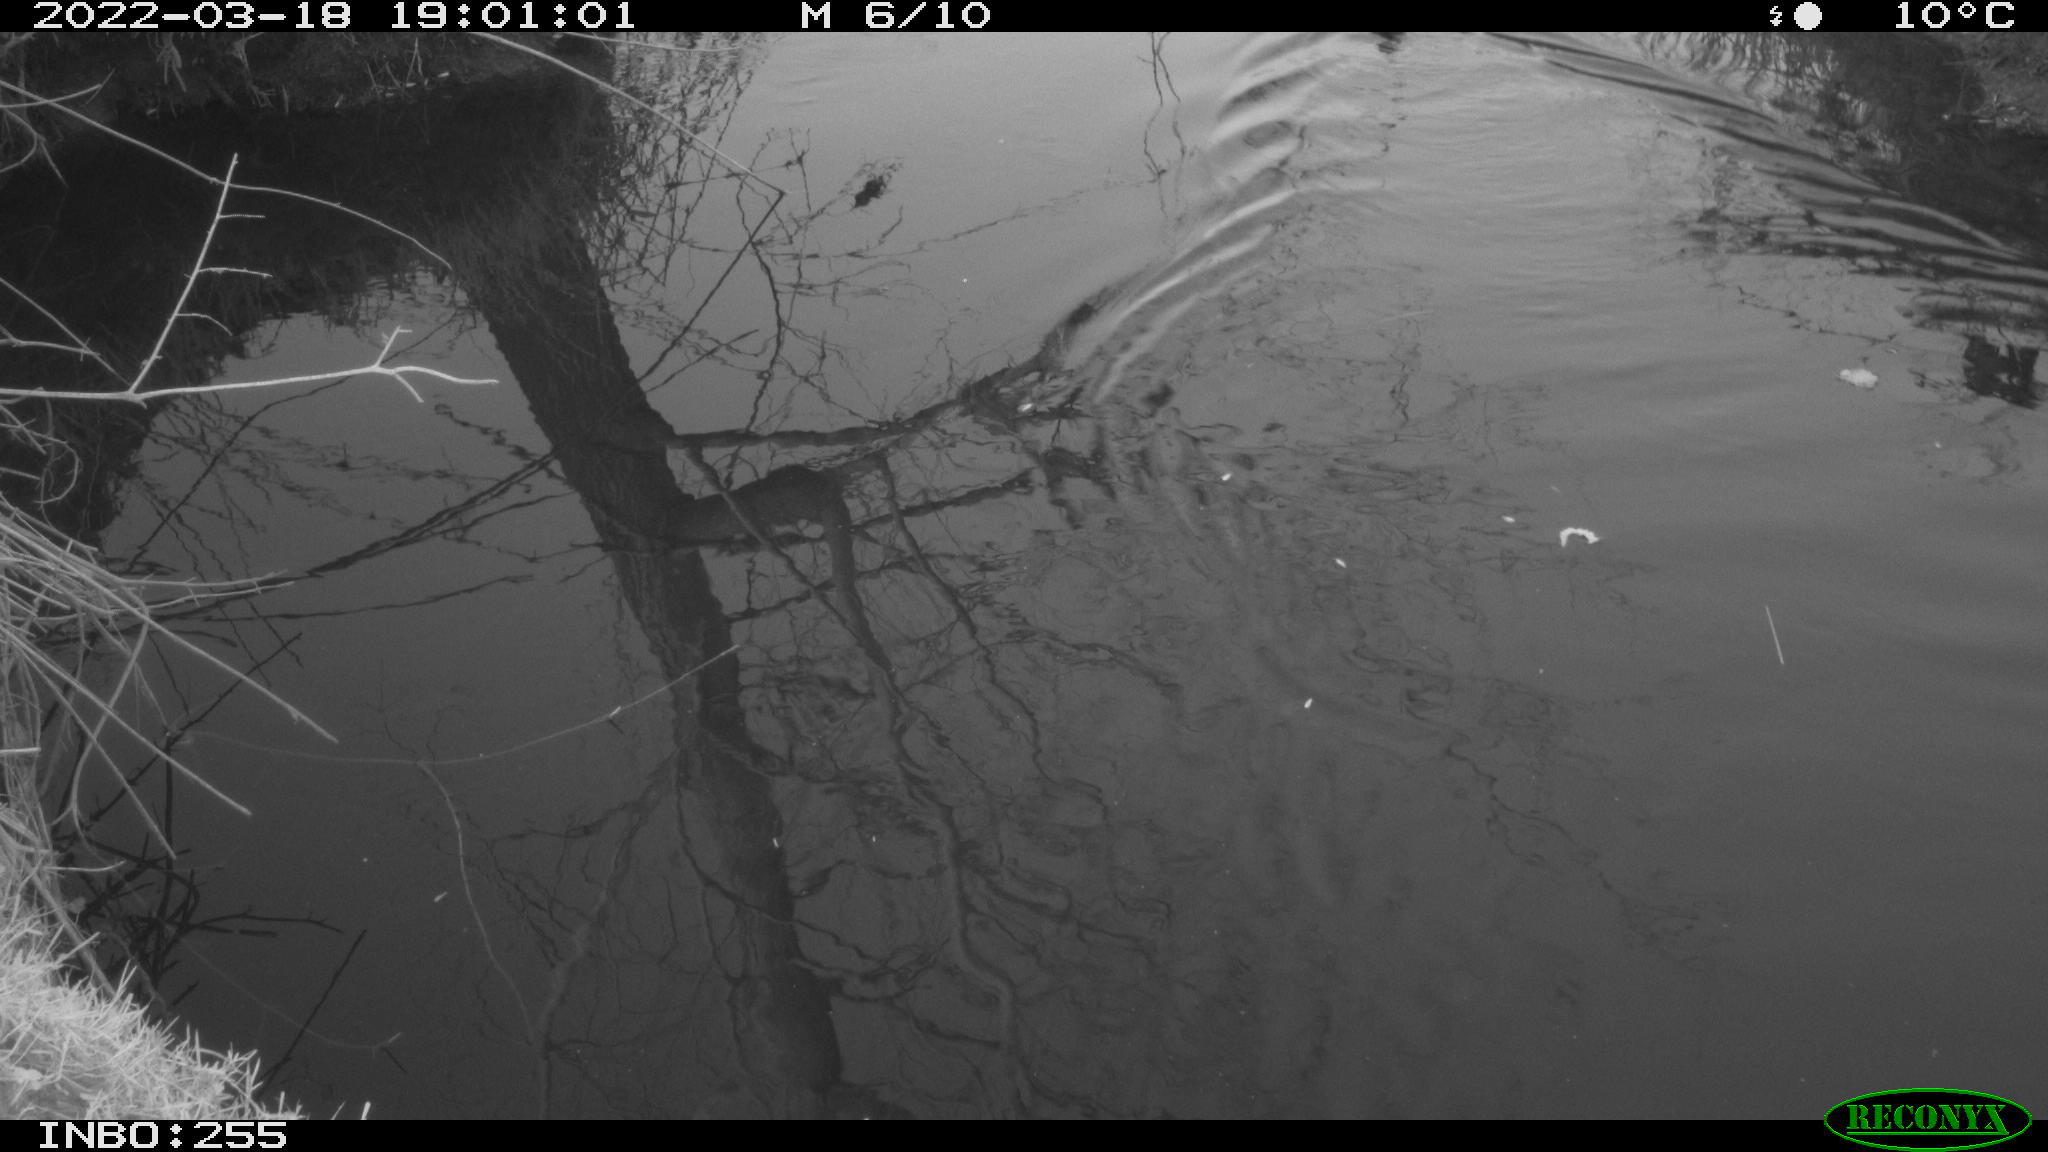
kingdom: Animalia
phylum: Chordata
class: Aves
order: Anseriformes
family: Anatidae
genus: Anas
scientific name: Anas platyrhynchos
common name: Mallard
